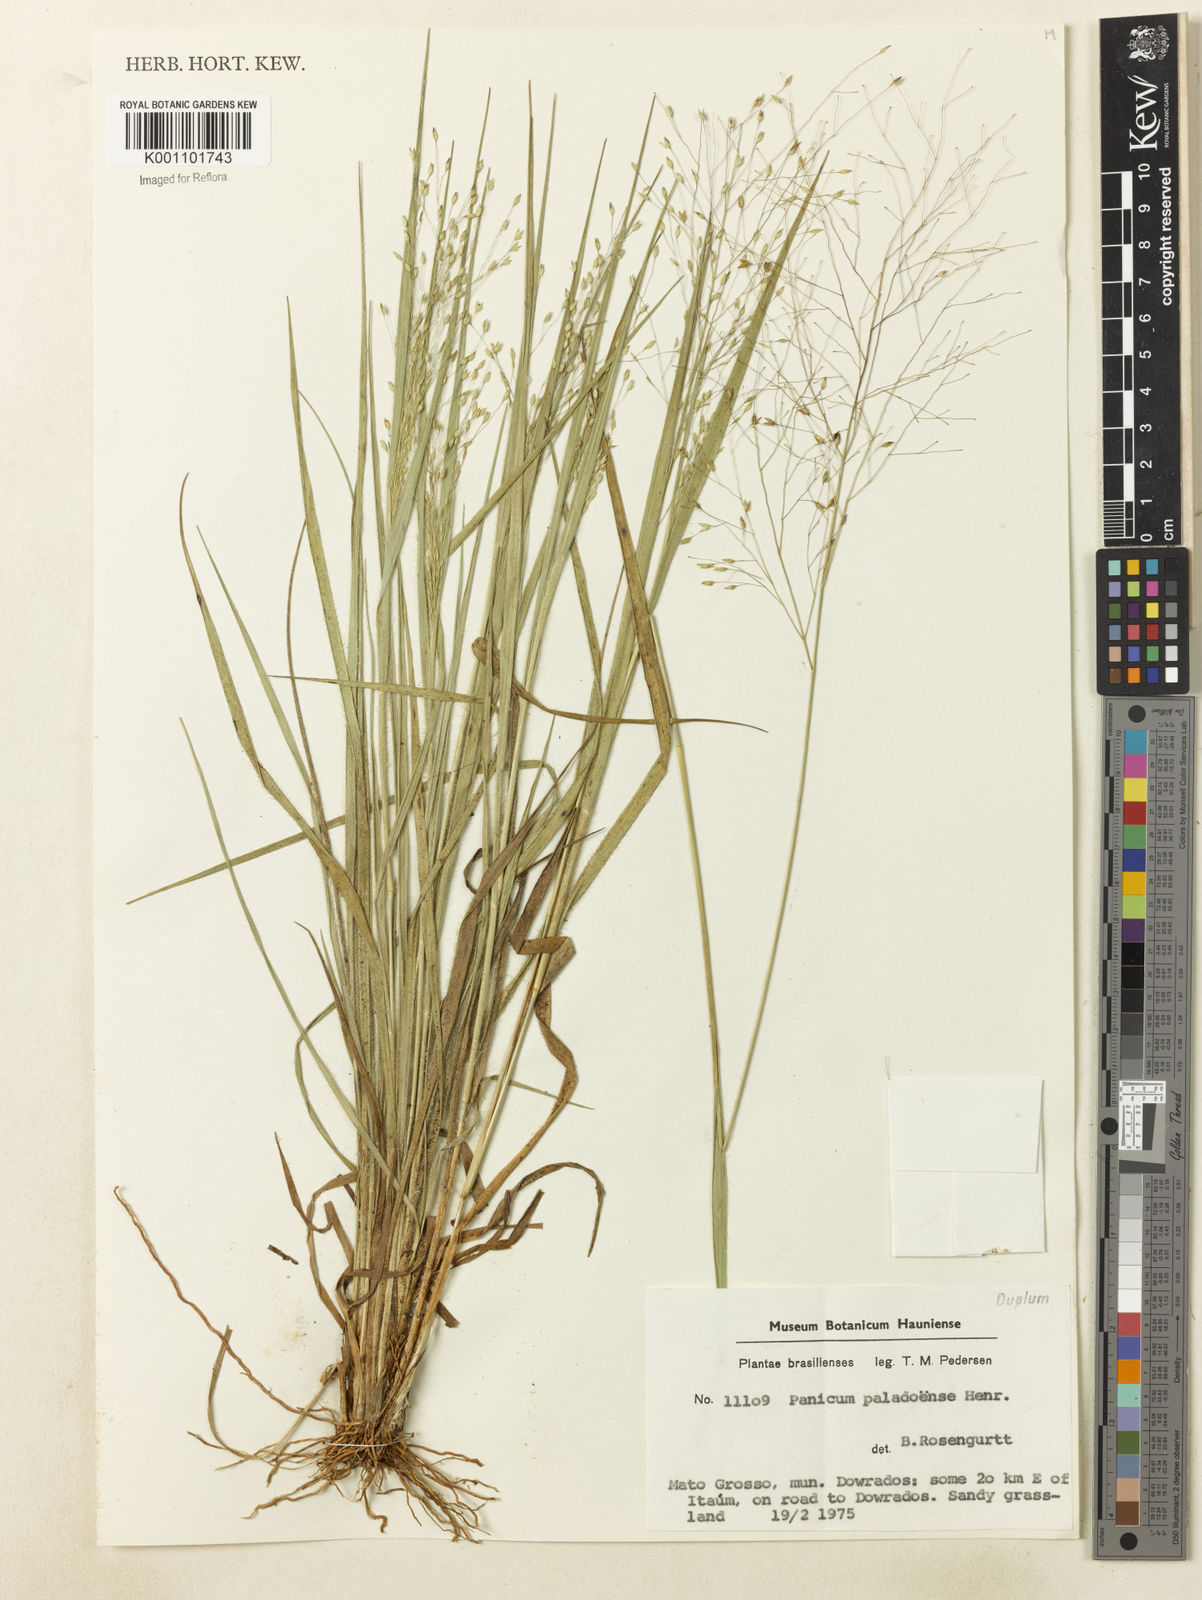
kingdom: Plantae
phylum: Tracheophyta
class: Liliopsida
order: Poales
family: Poaceae
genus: Panicum
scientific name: Panicum peladoense
